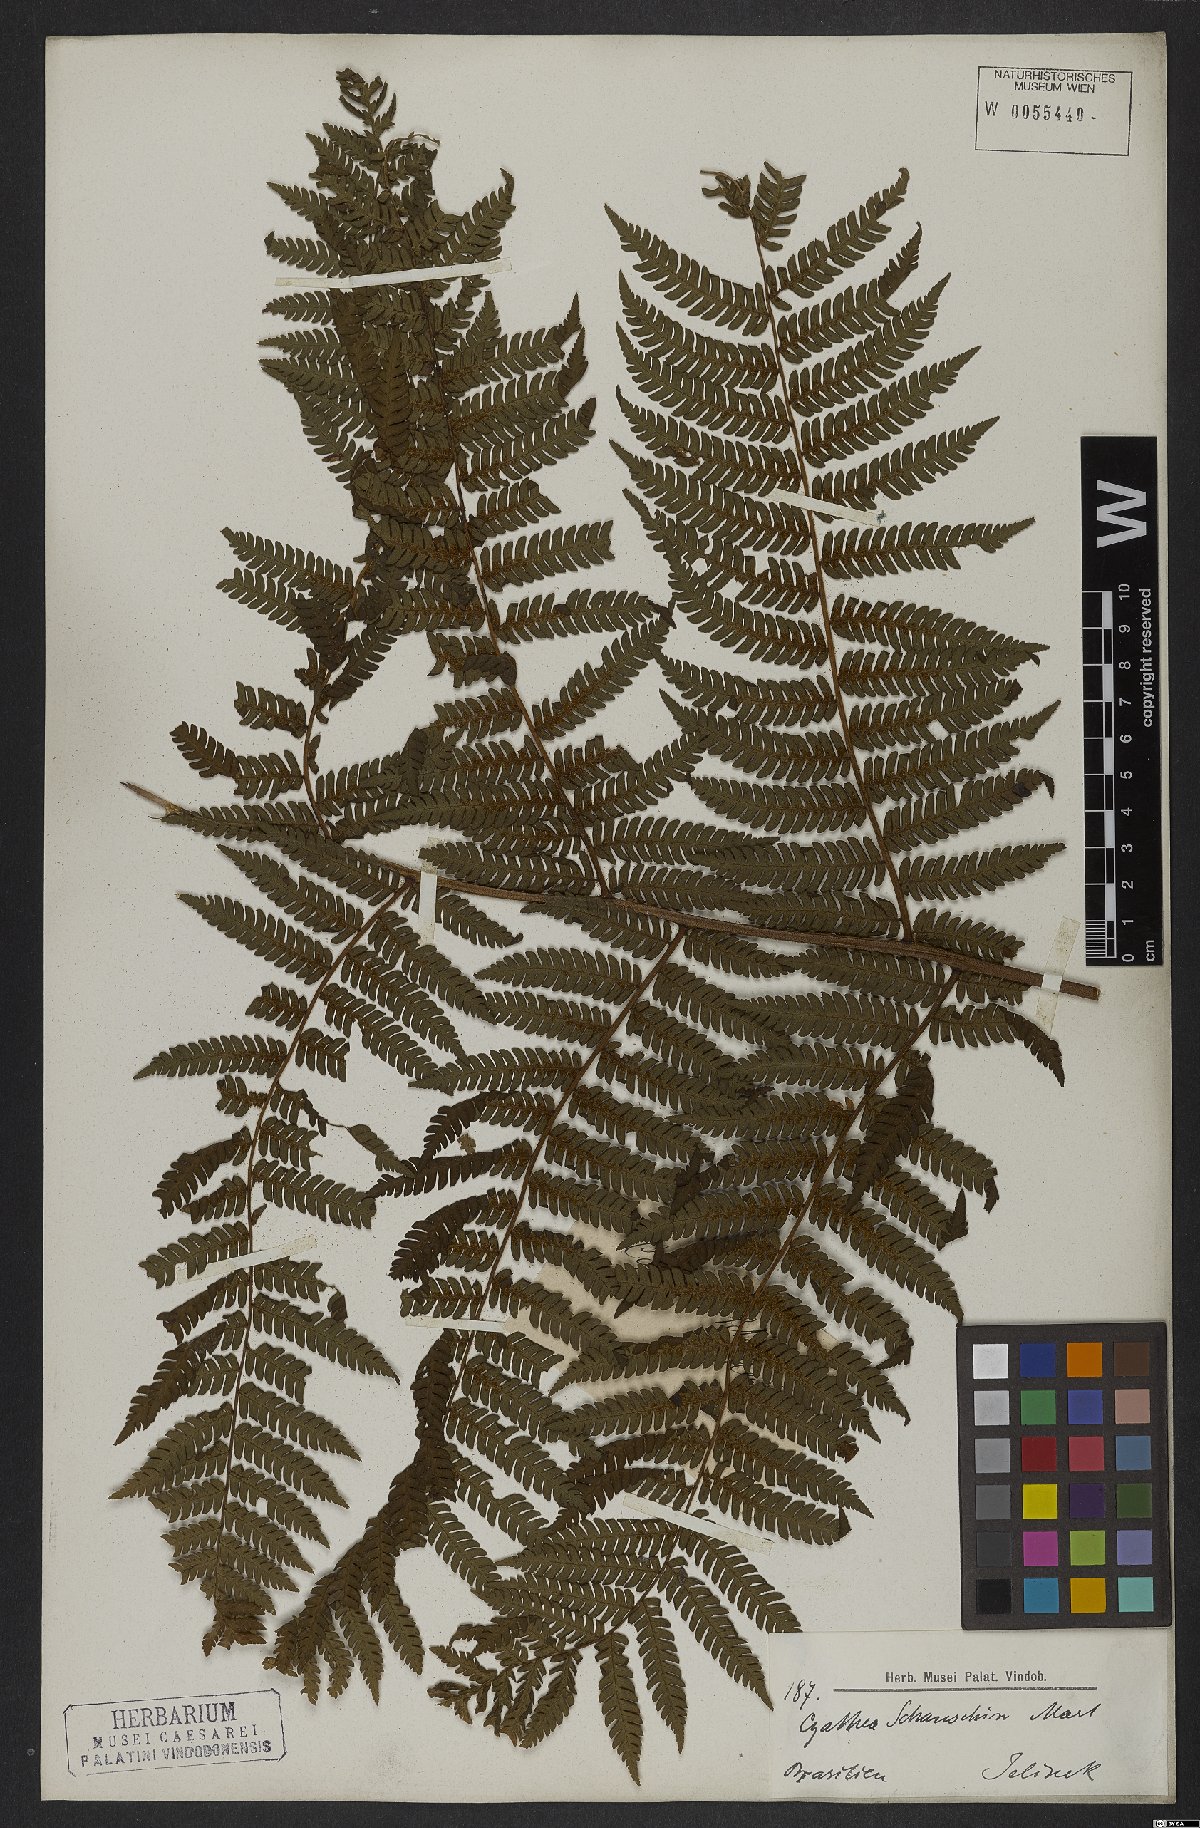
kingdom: Plantae
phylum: Tracheophyta
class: Polypodiopsida
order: Cyatheales
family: Cyatheaceae
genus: Cyathea
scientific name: Cyathea atrovirens
